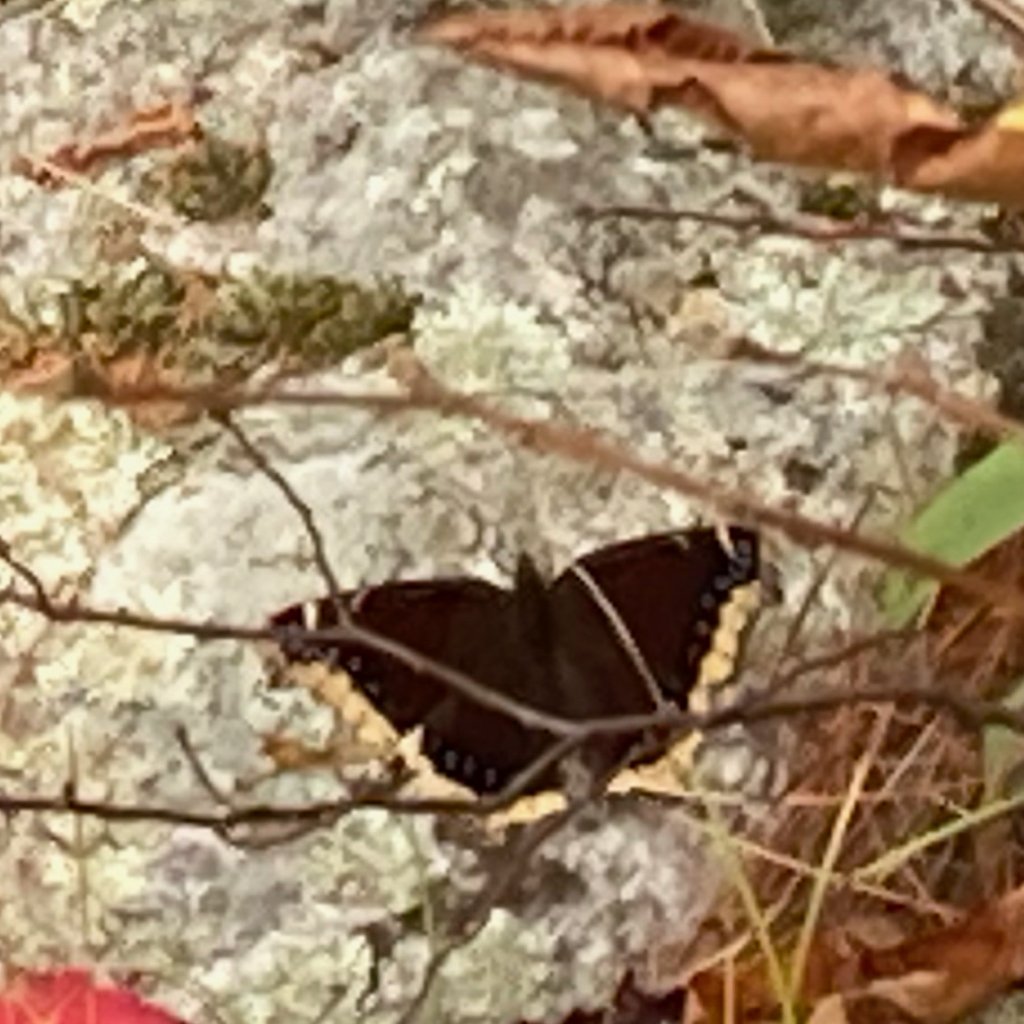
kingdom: Animalia
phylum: Arthropoda
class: Insecta
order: Lepidoptera
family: Nymphalidae
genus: Nymphalis
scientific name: Nymphalis antiopa
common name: Mourning Cloak
